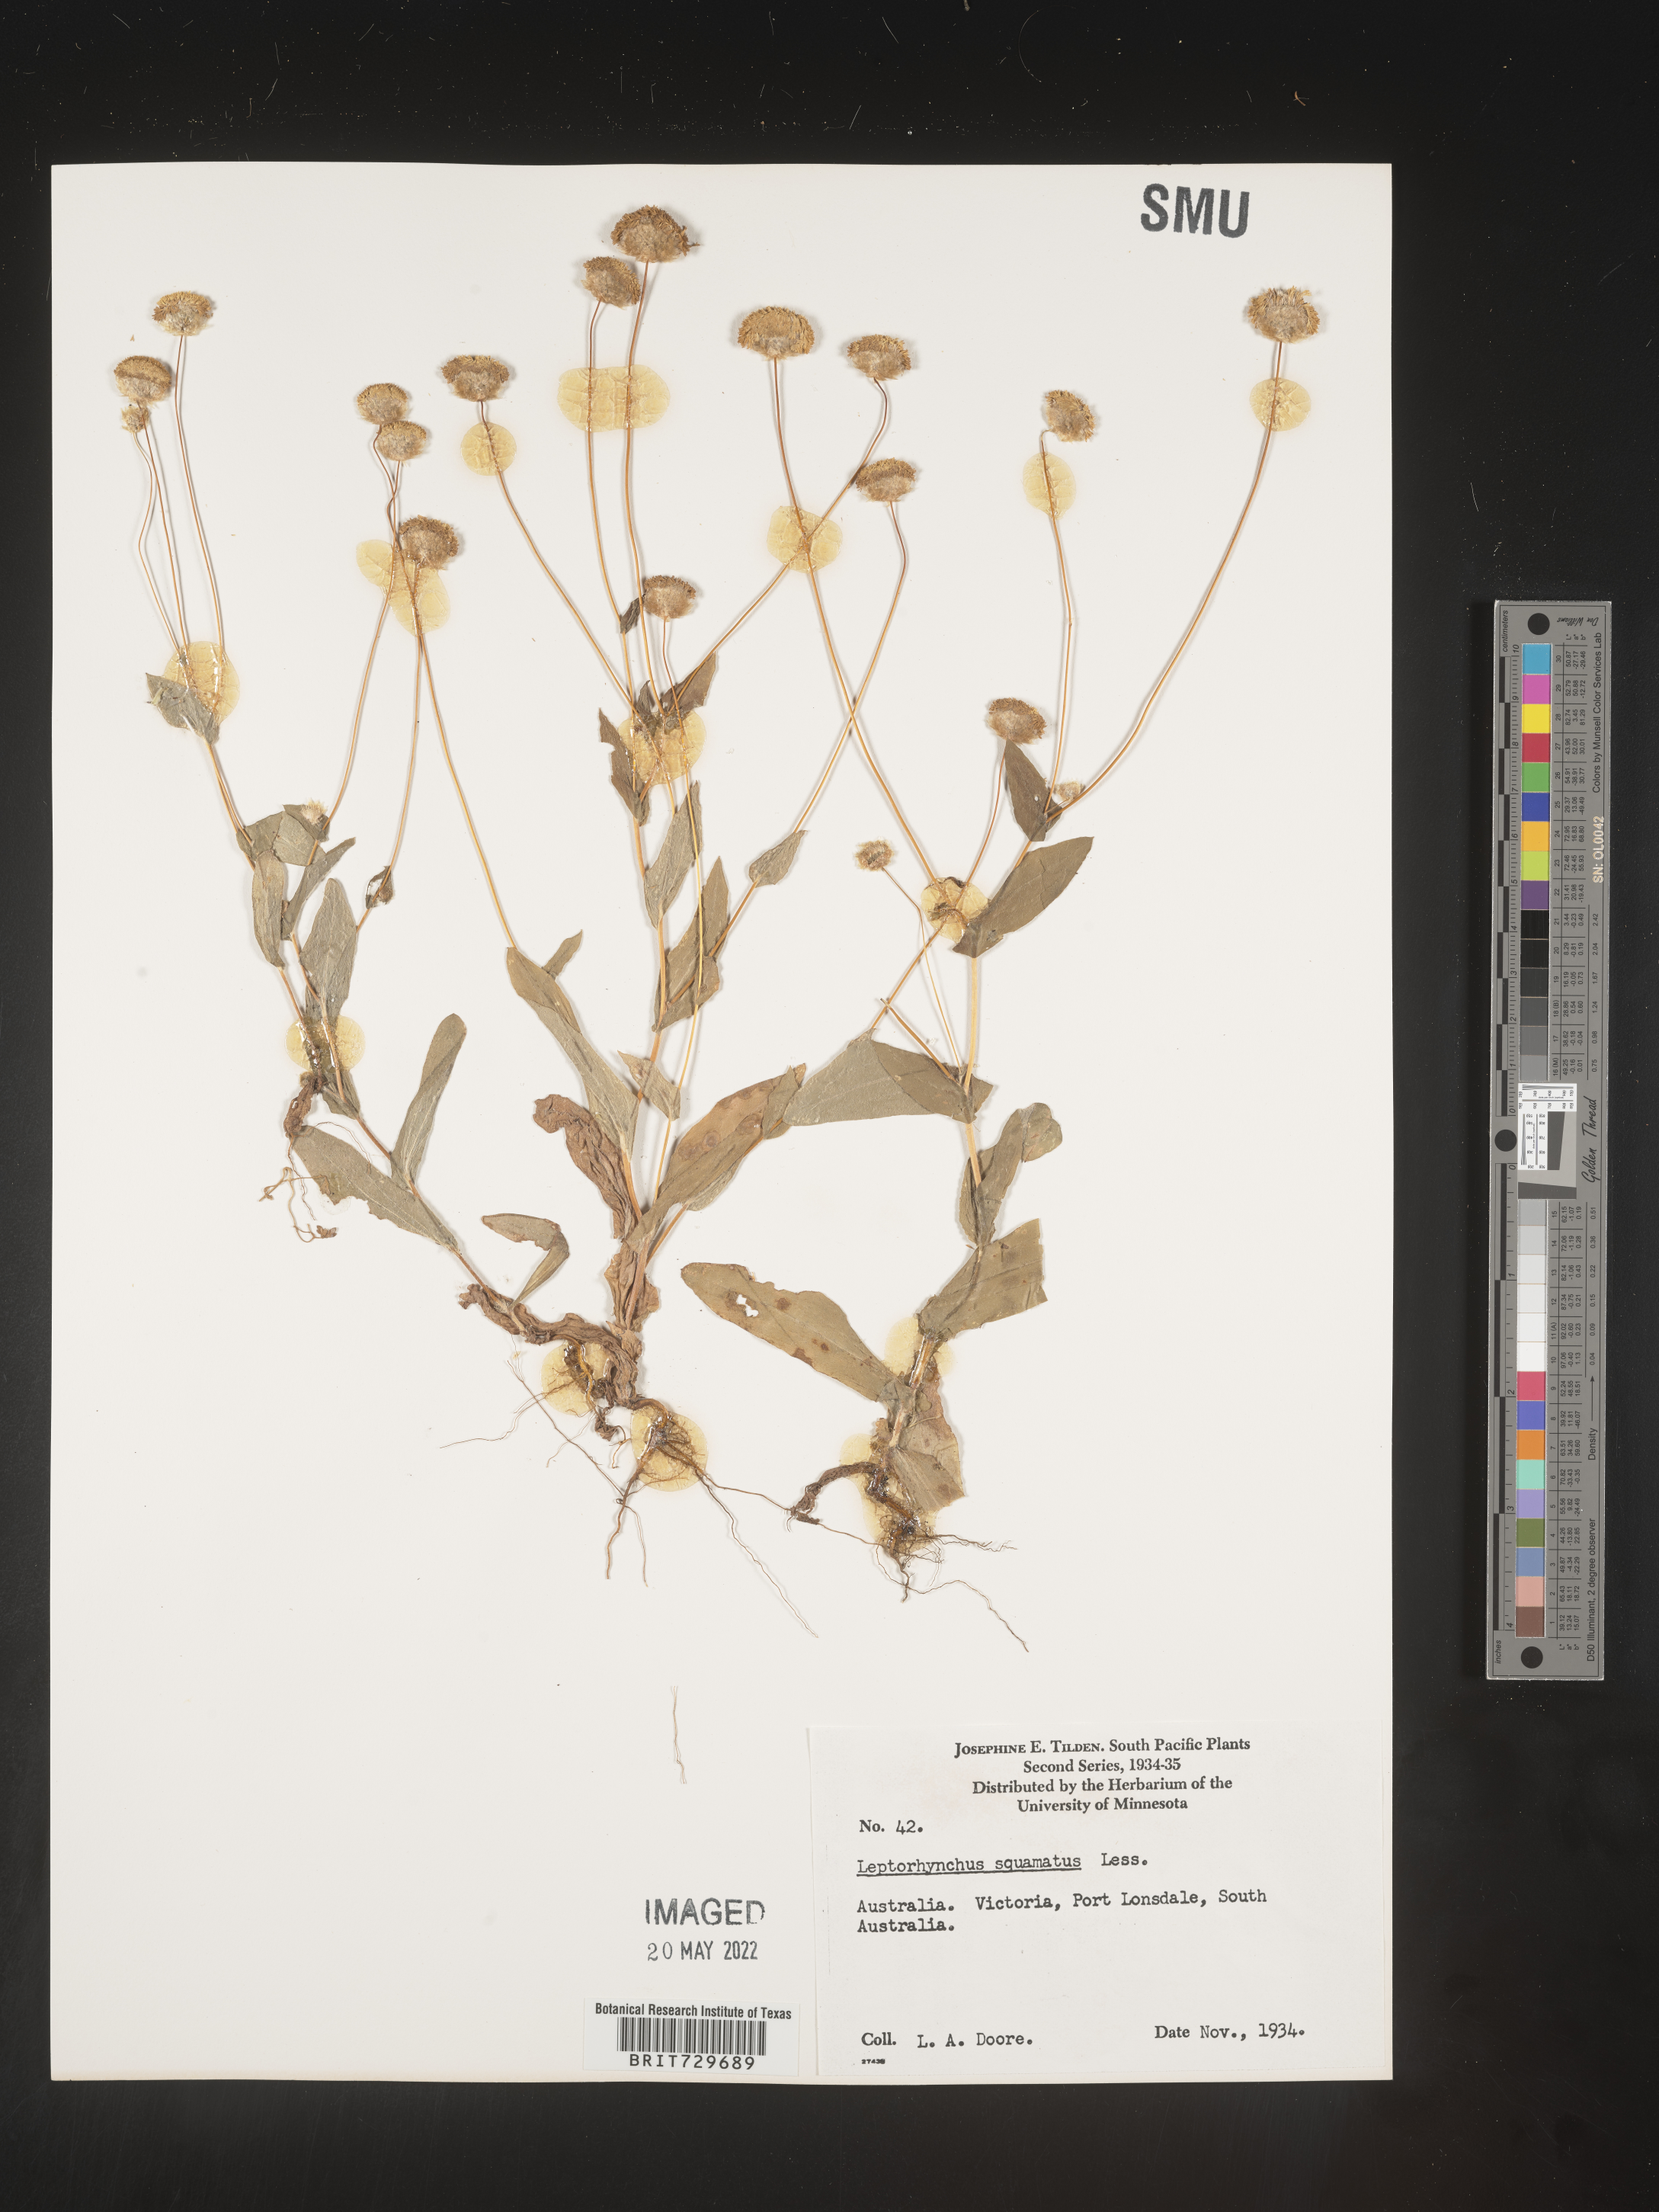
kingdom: Plantae
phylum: Tracheophyta
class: Magnoliopsida
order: Asterales
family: Asteraceae
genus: Leptorhynchos
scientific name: Leptorhynchos
